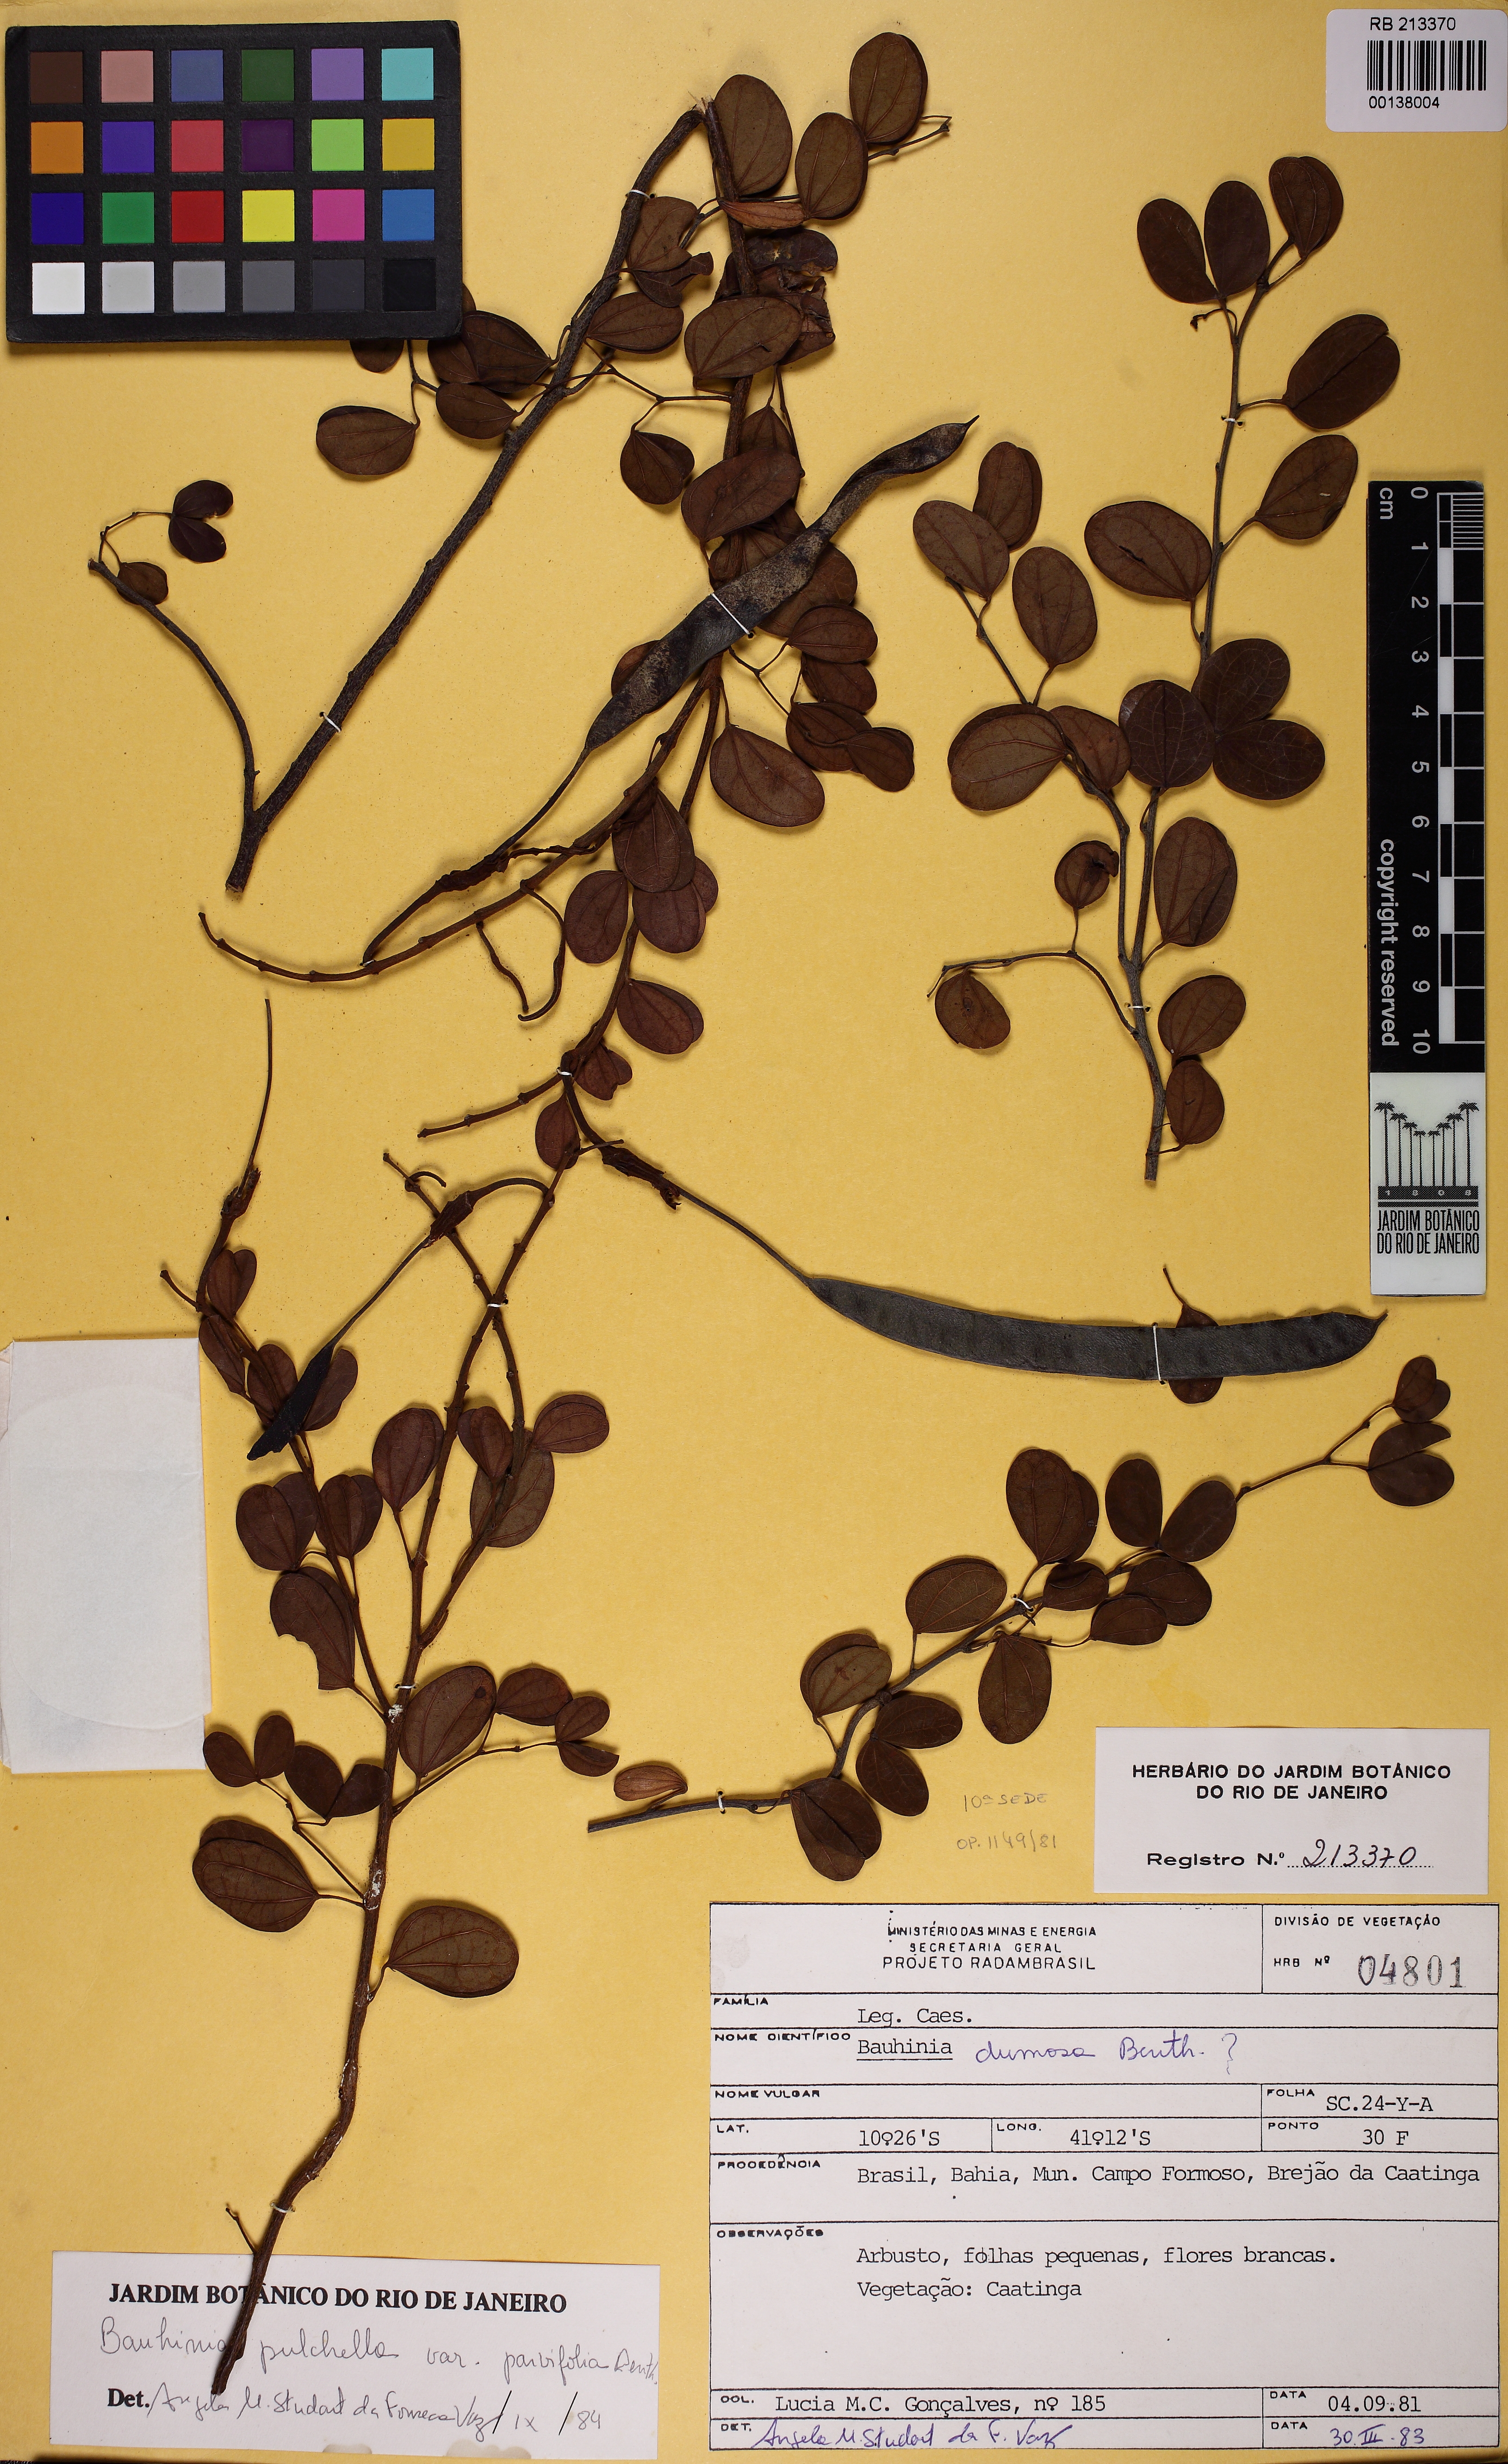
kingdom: Plantae
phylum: Tracheophyta
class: Magnoliopsida
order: Fabales
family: Fabaceae
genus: Bauhinia
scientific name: Bauhinia pulchella
